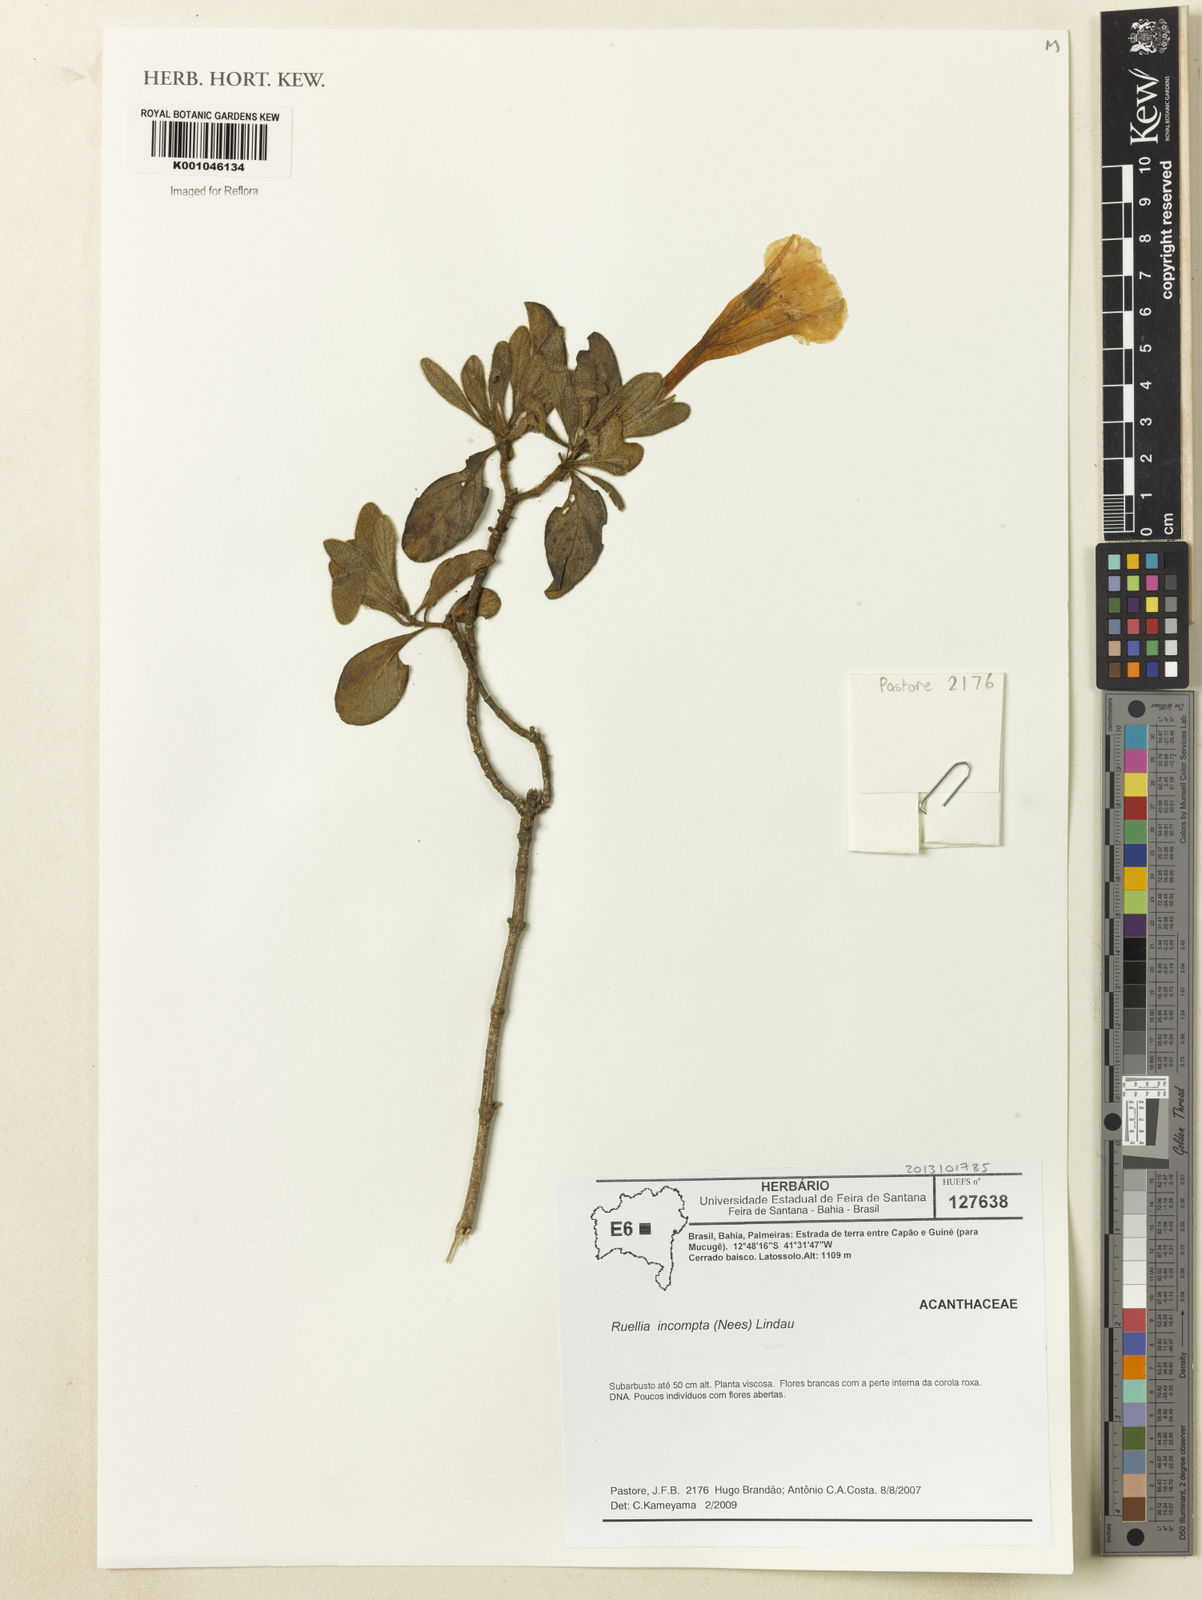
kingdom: Plantae
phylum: Tracheophyta
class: Magnoliopsida
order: Lamiales
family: Acanthaceae
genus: Ruellia
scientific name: Ruellia
